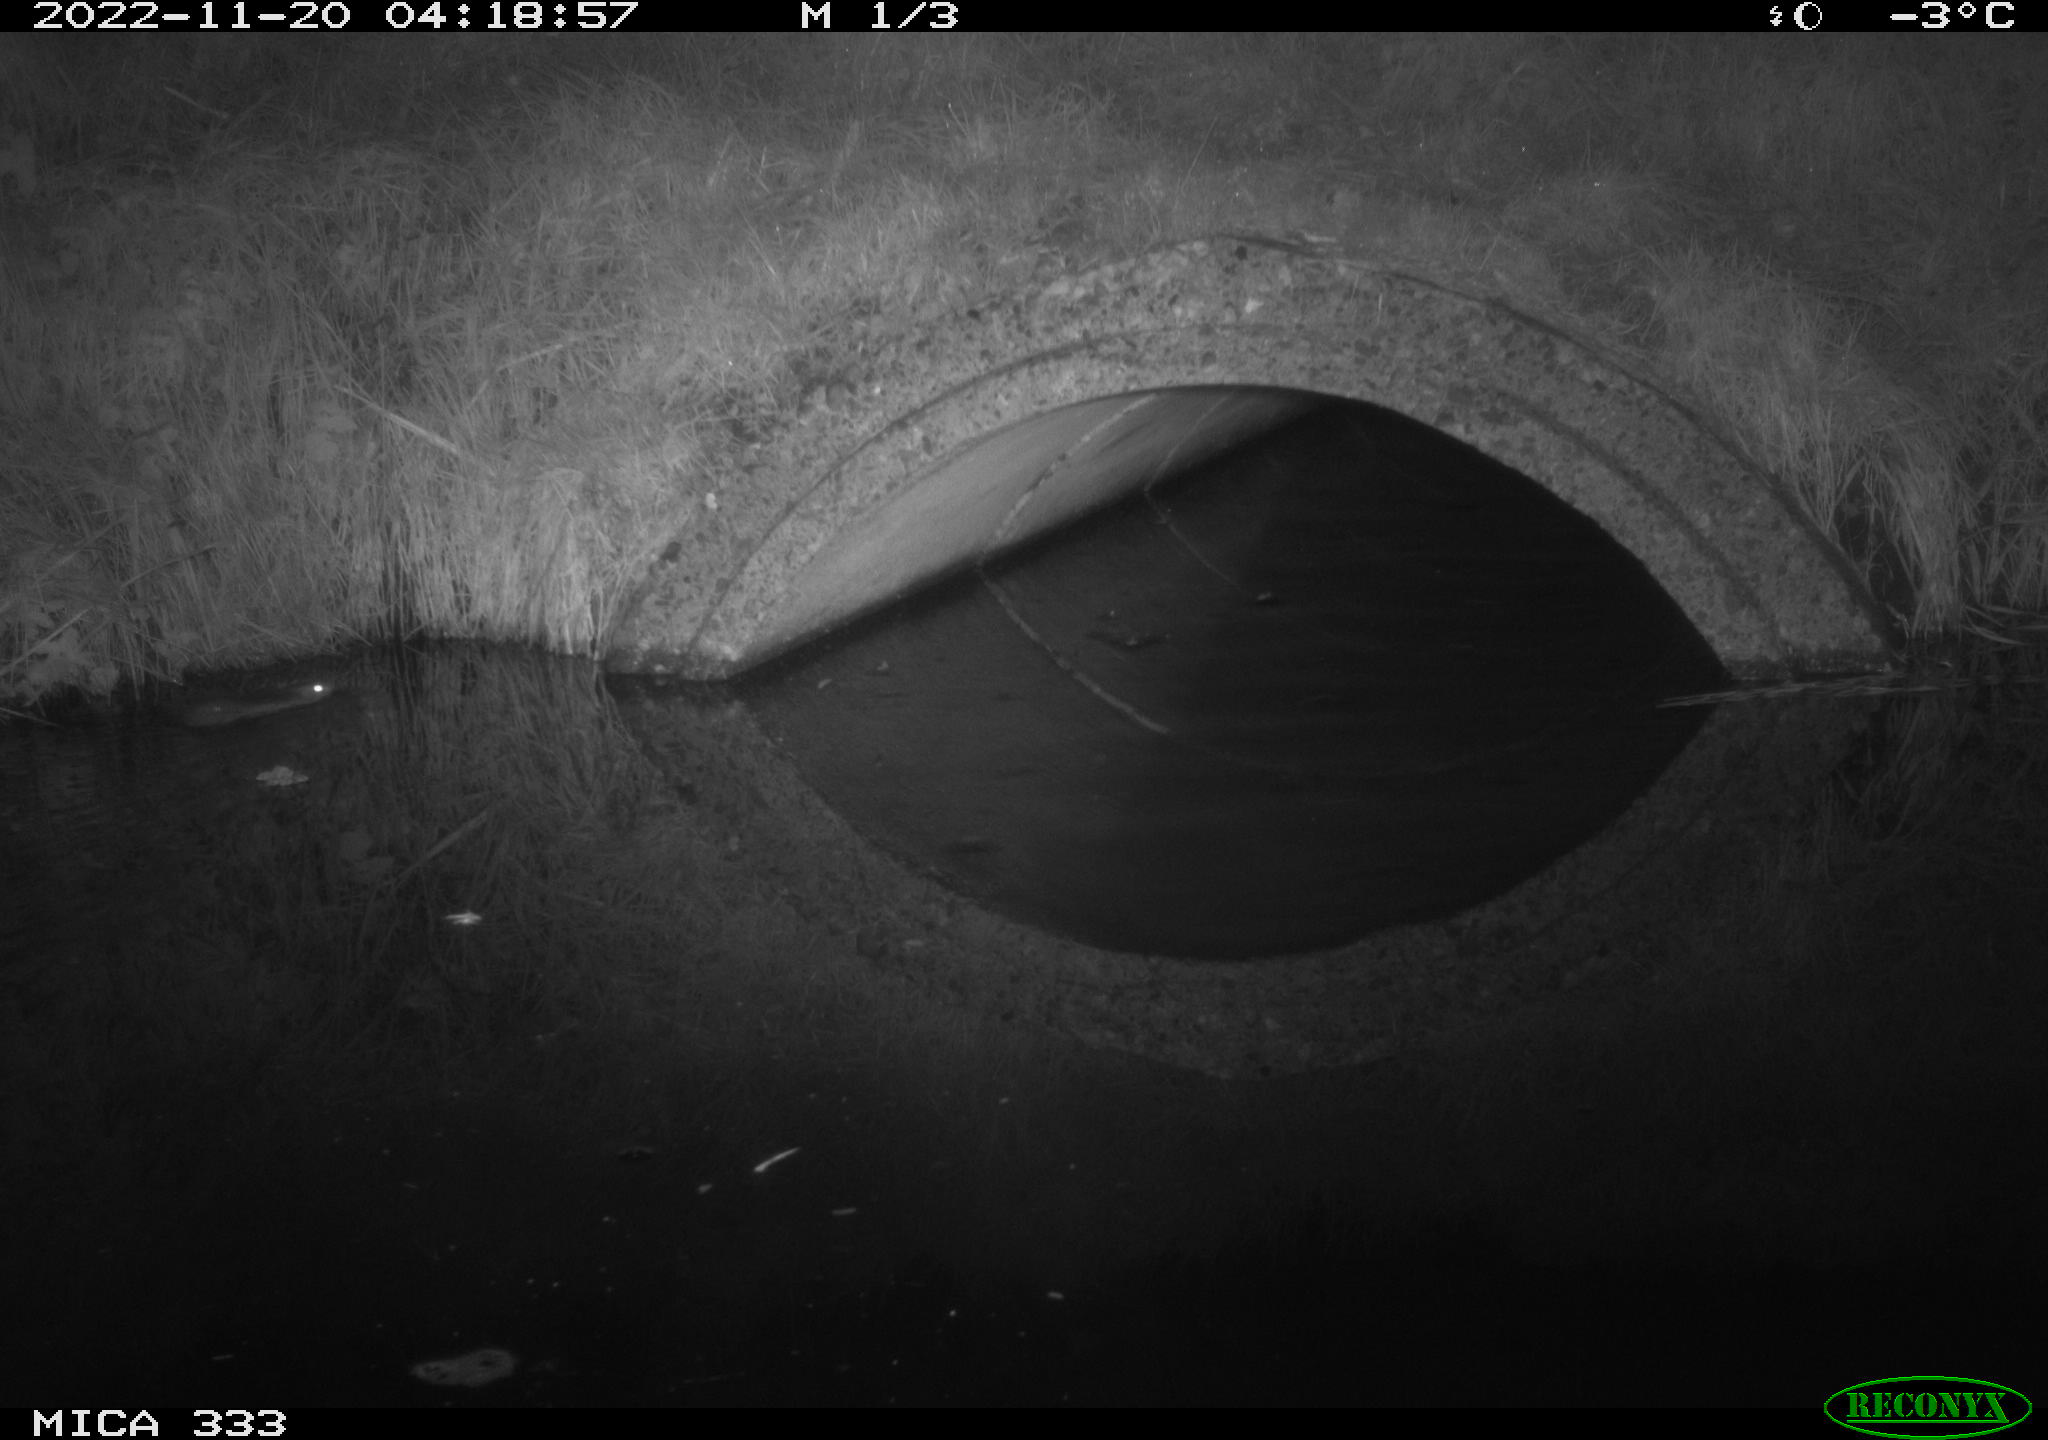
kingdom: Animalia
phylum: Chordata
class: Mammalia
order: Rodentia
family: Muridae
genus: Rattus
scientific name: Rattus norvegicus
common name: Brown rat
